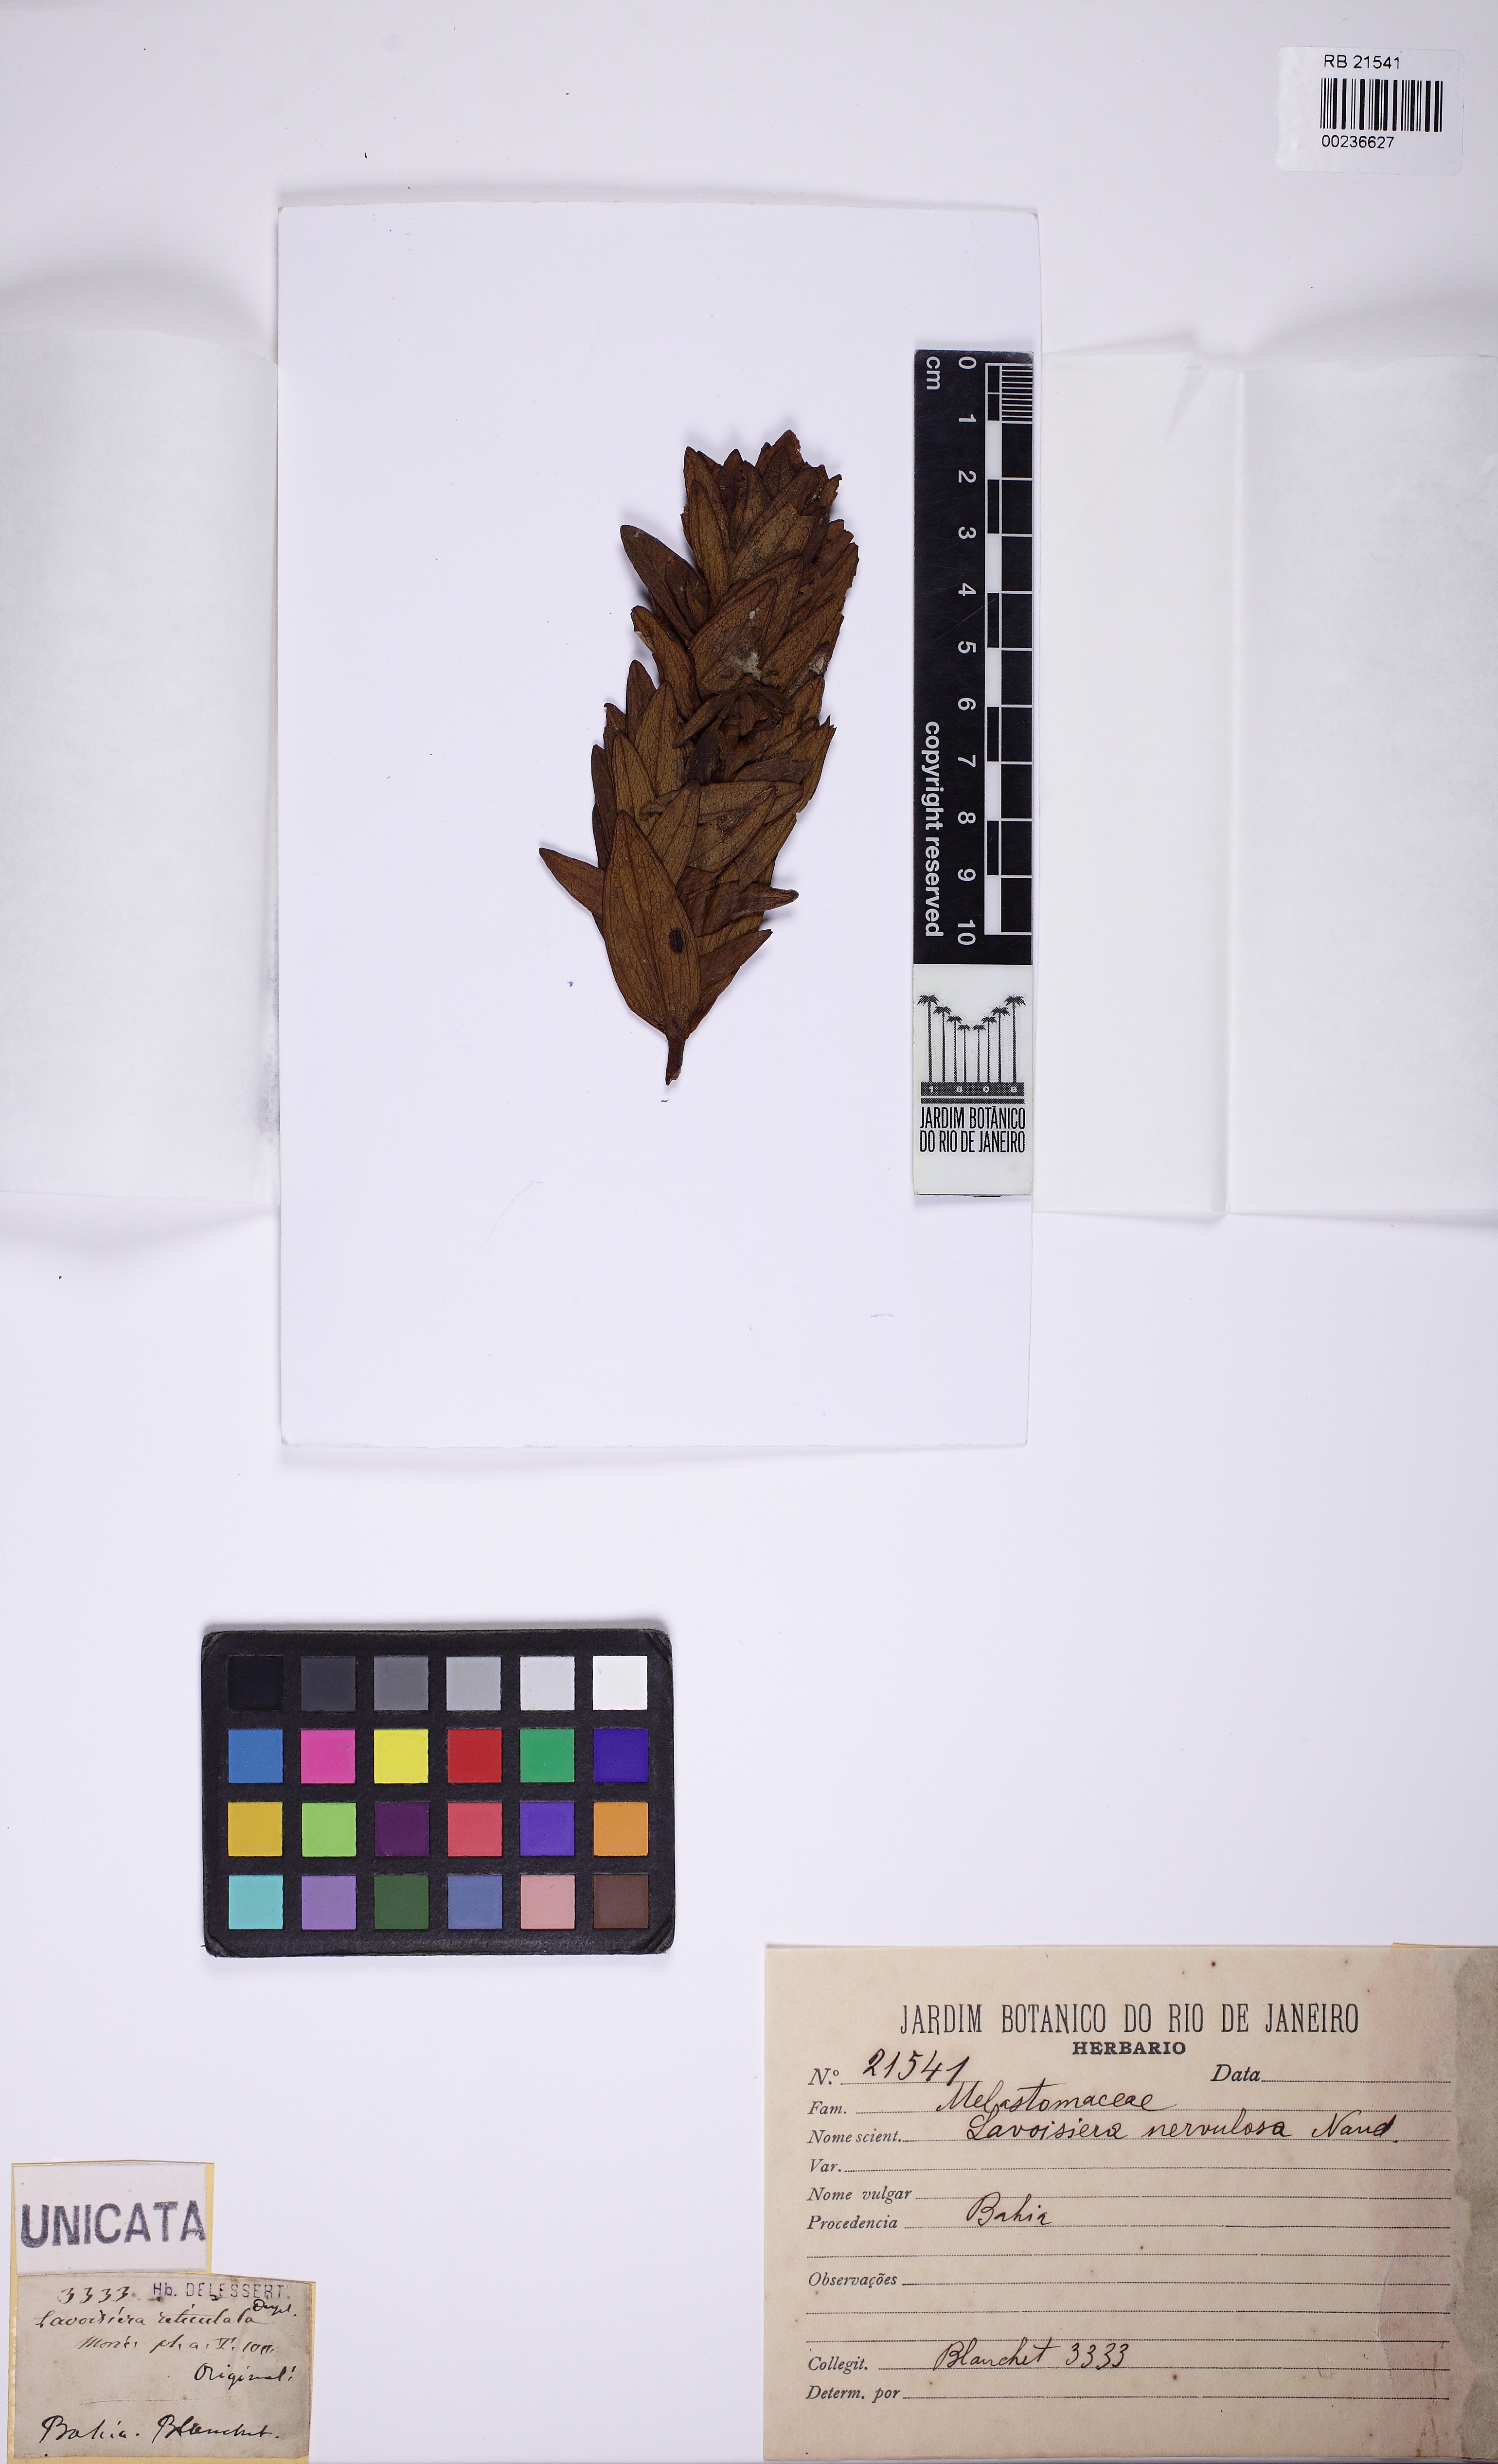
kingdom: Plantae
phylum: Tracheophyta
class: Magnoliopsida
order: Myrtales
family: Melastomataceae
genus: Microlicia
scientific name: Microlicia nervulosa
